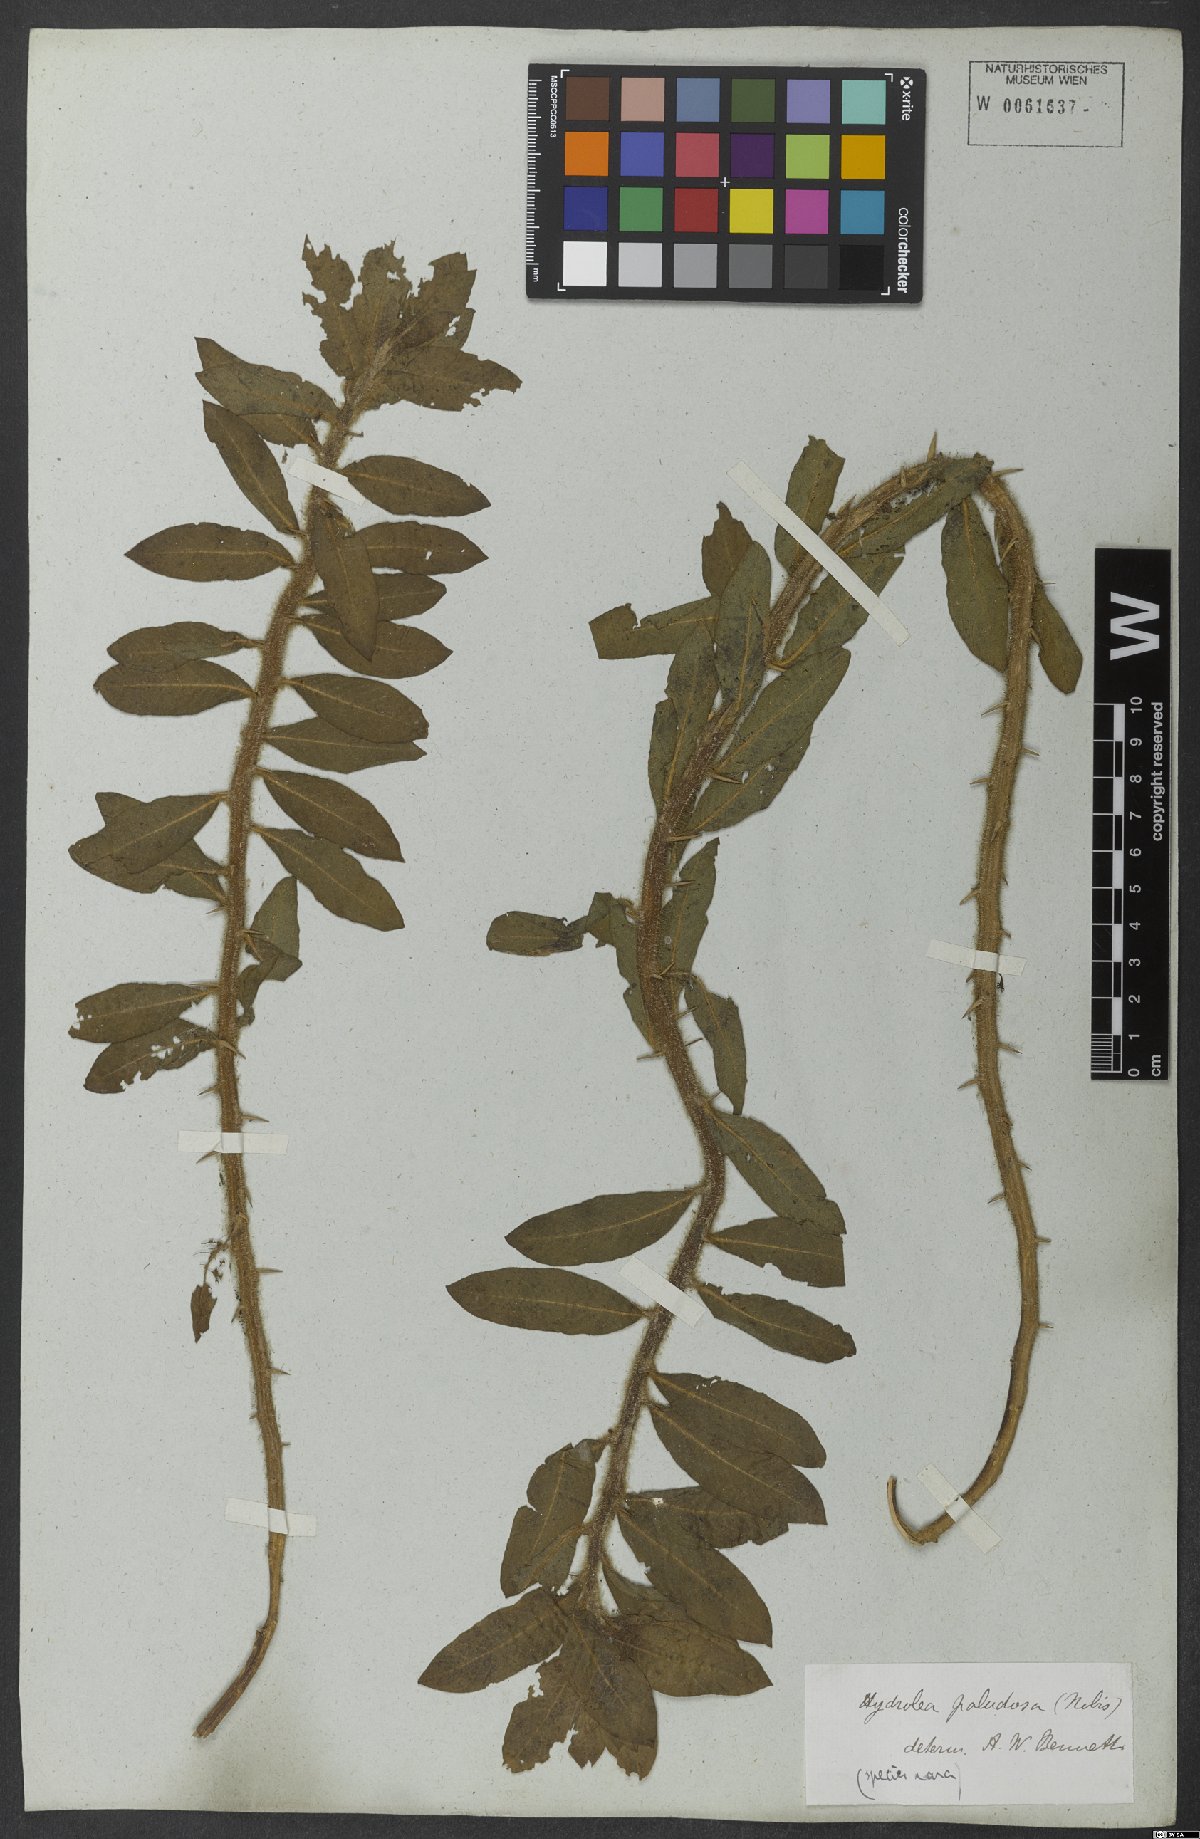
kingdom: Plantae
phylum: Tracheophyta
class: Magnoliopsida
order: Solanales
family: Hydroleaceae
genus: Hydrolea
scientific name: Hydrolea spinosa
